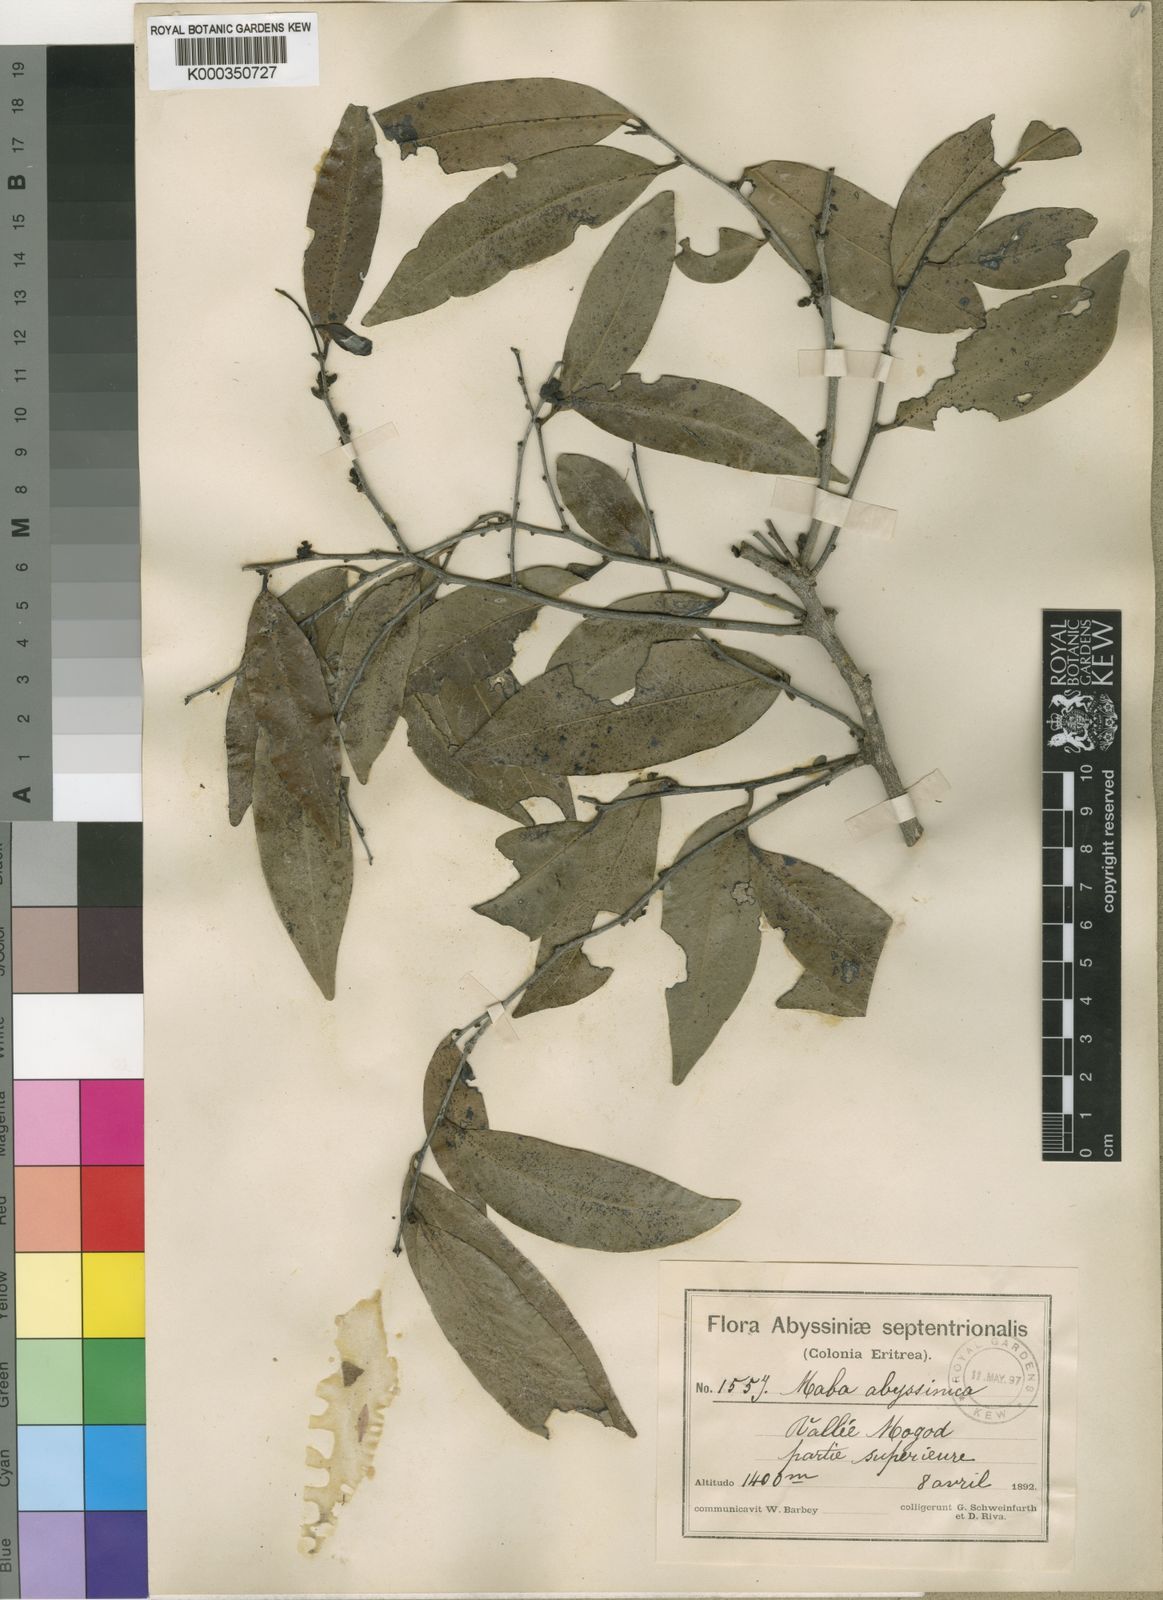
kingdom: Plantae
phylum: Tracheophyta
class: Magnoliopsida
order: Ericales
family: Ebenaceae
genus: Diospyros
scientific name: Diospyros abyssinica
